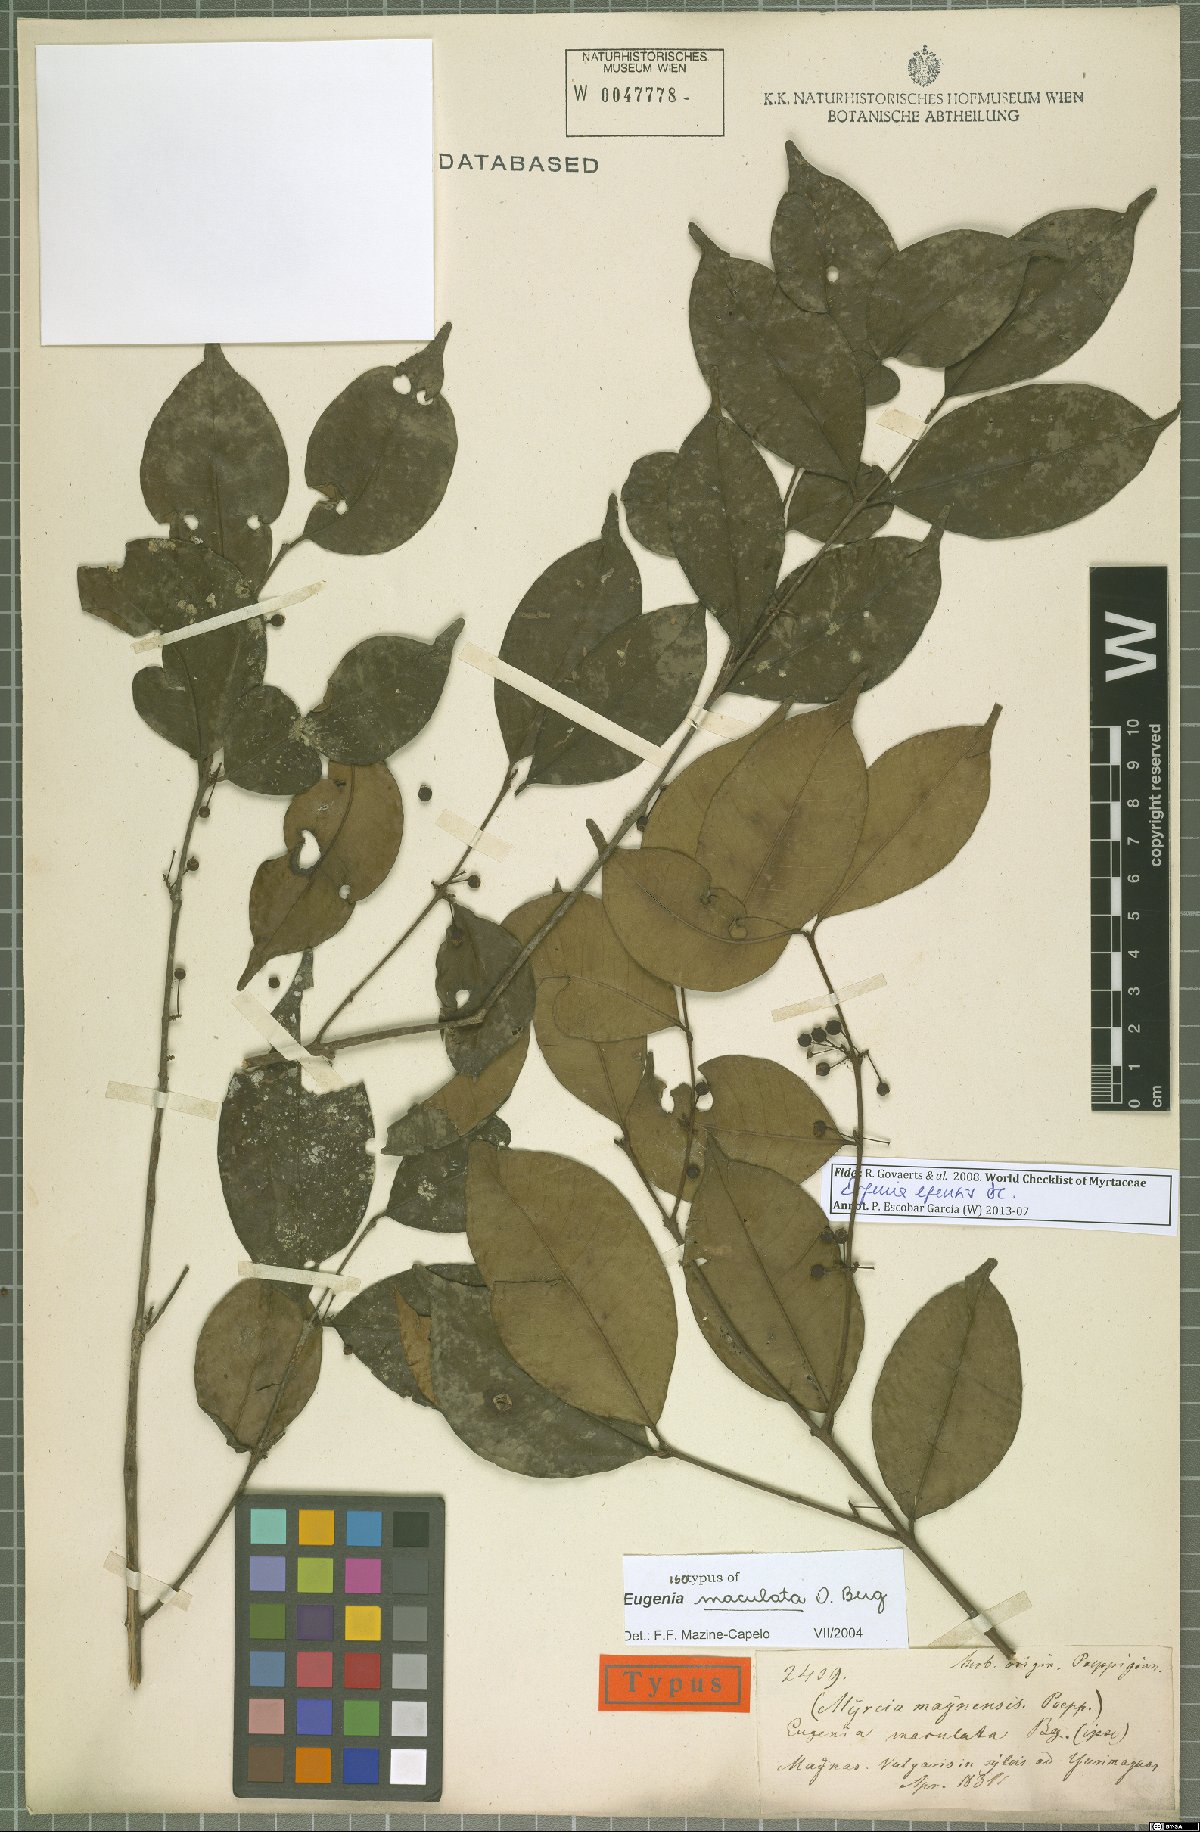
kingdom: Plantae
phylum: Tracheophyta
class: Magnoliopsida
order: Myrtales
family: Myrtaceae
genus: Eugenia
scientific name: Eugenia egensis
